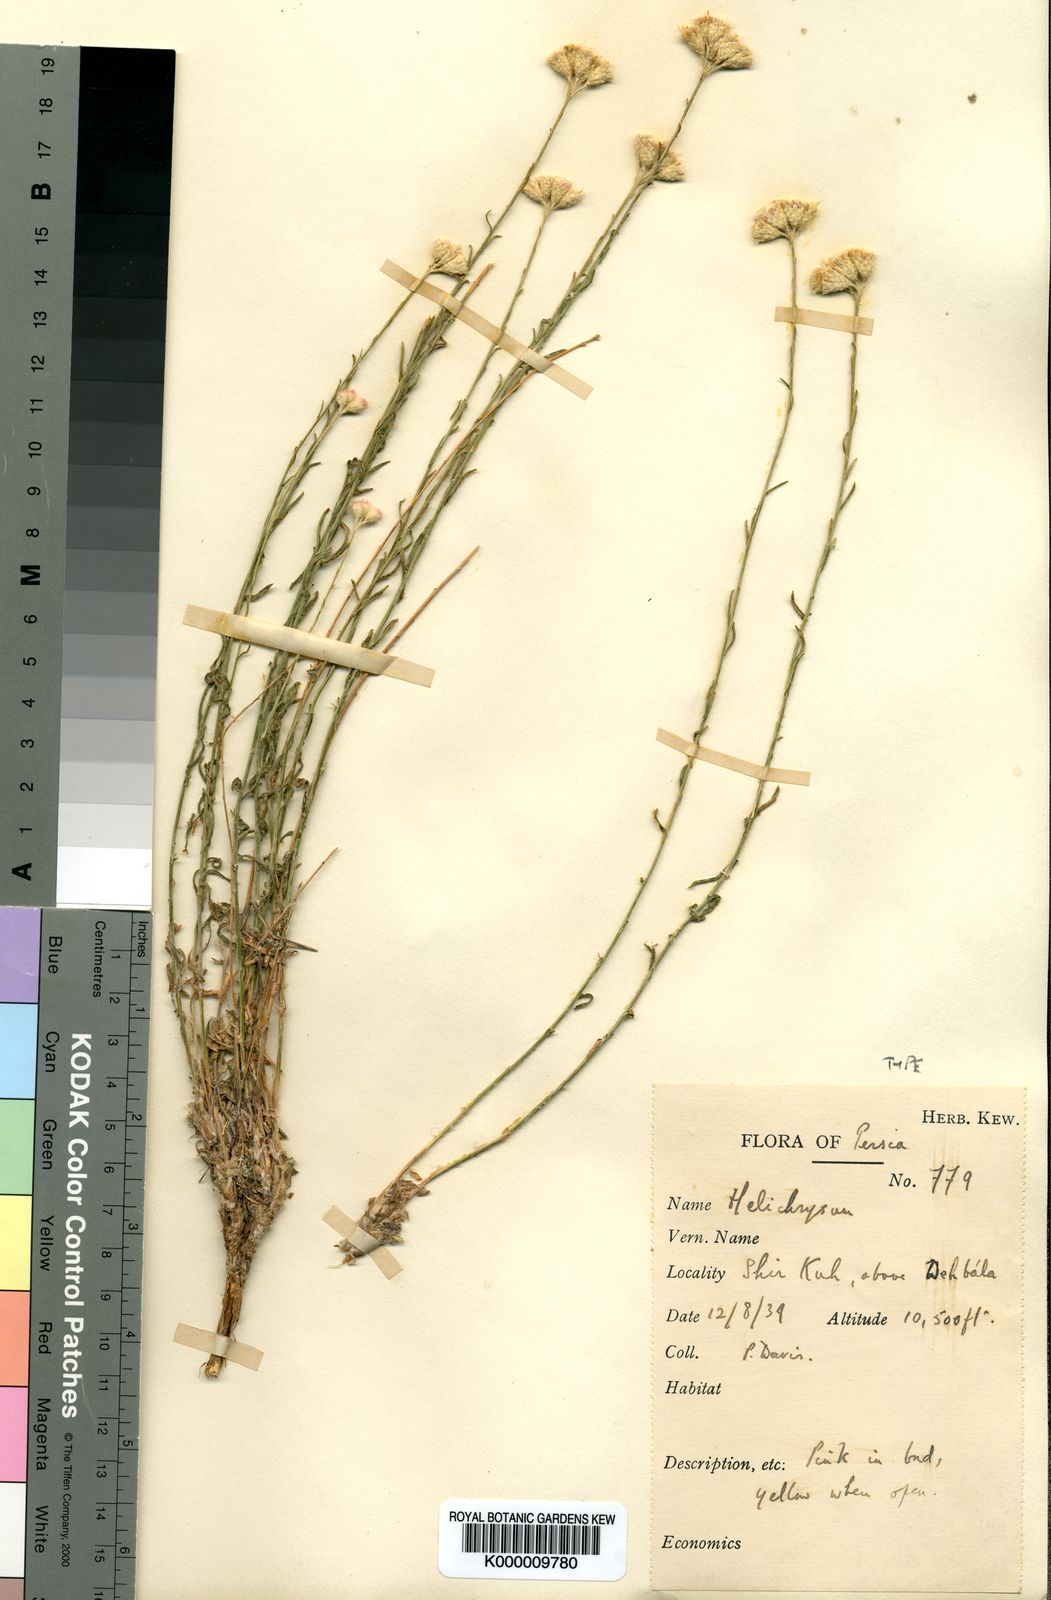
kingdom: Plantae
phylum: Tracheophyta
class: Magnoliopsida
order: Asterales
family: Asteraceae
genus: Helichrysum
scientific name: Helichrysum artemisioides
